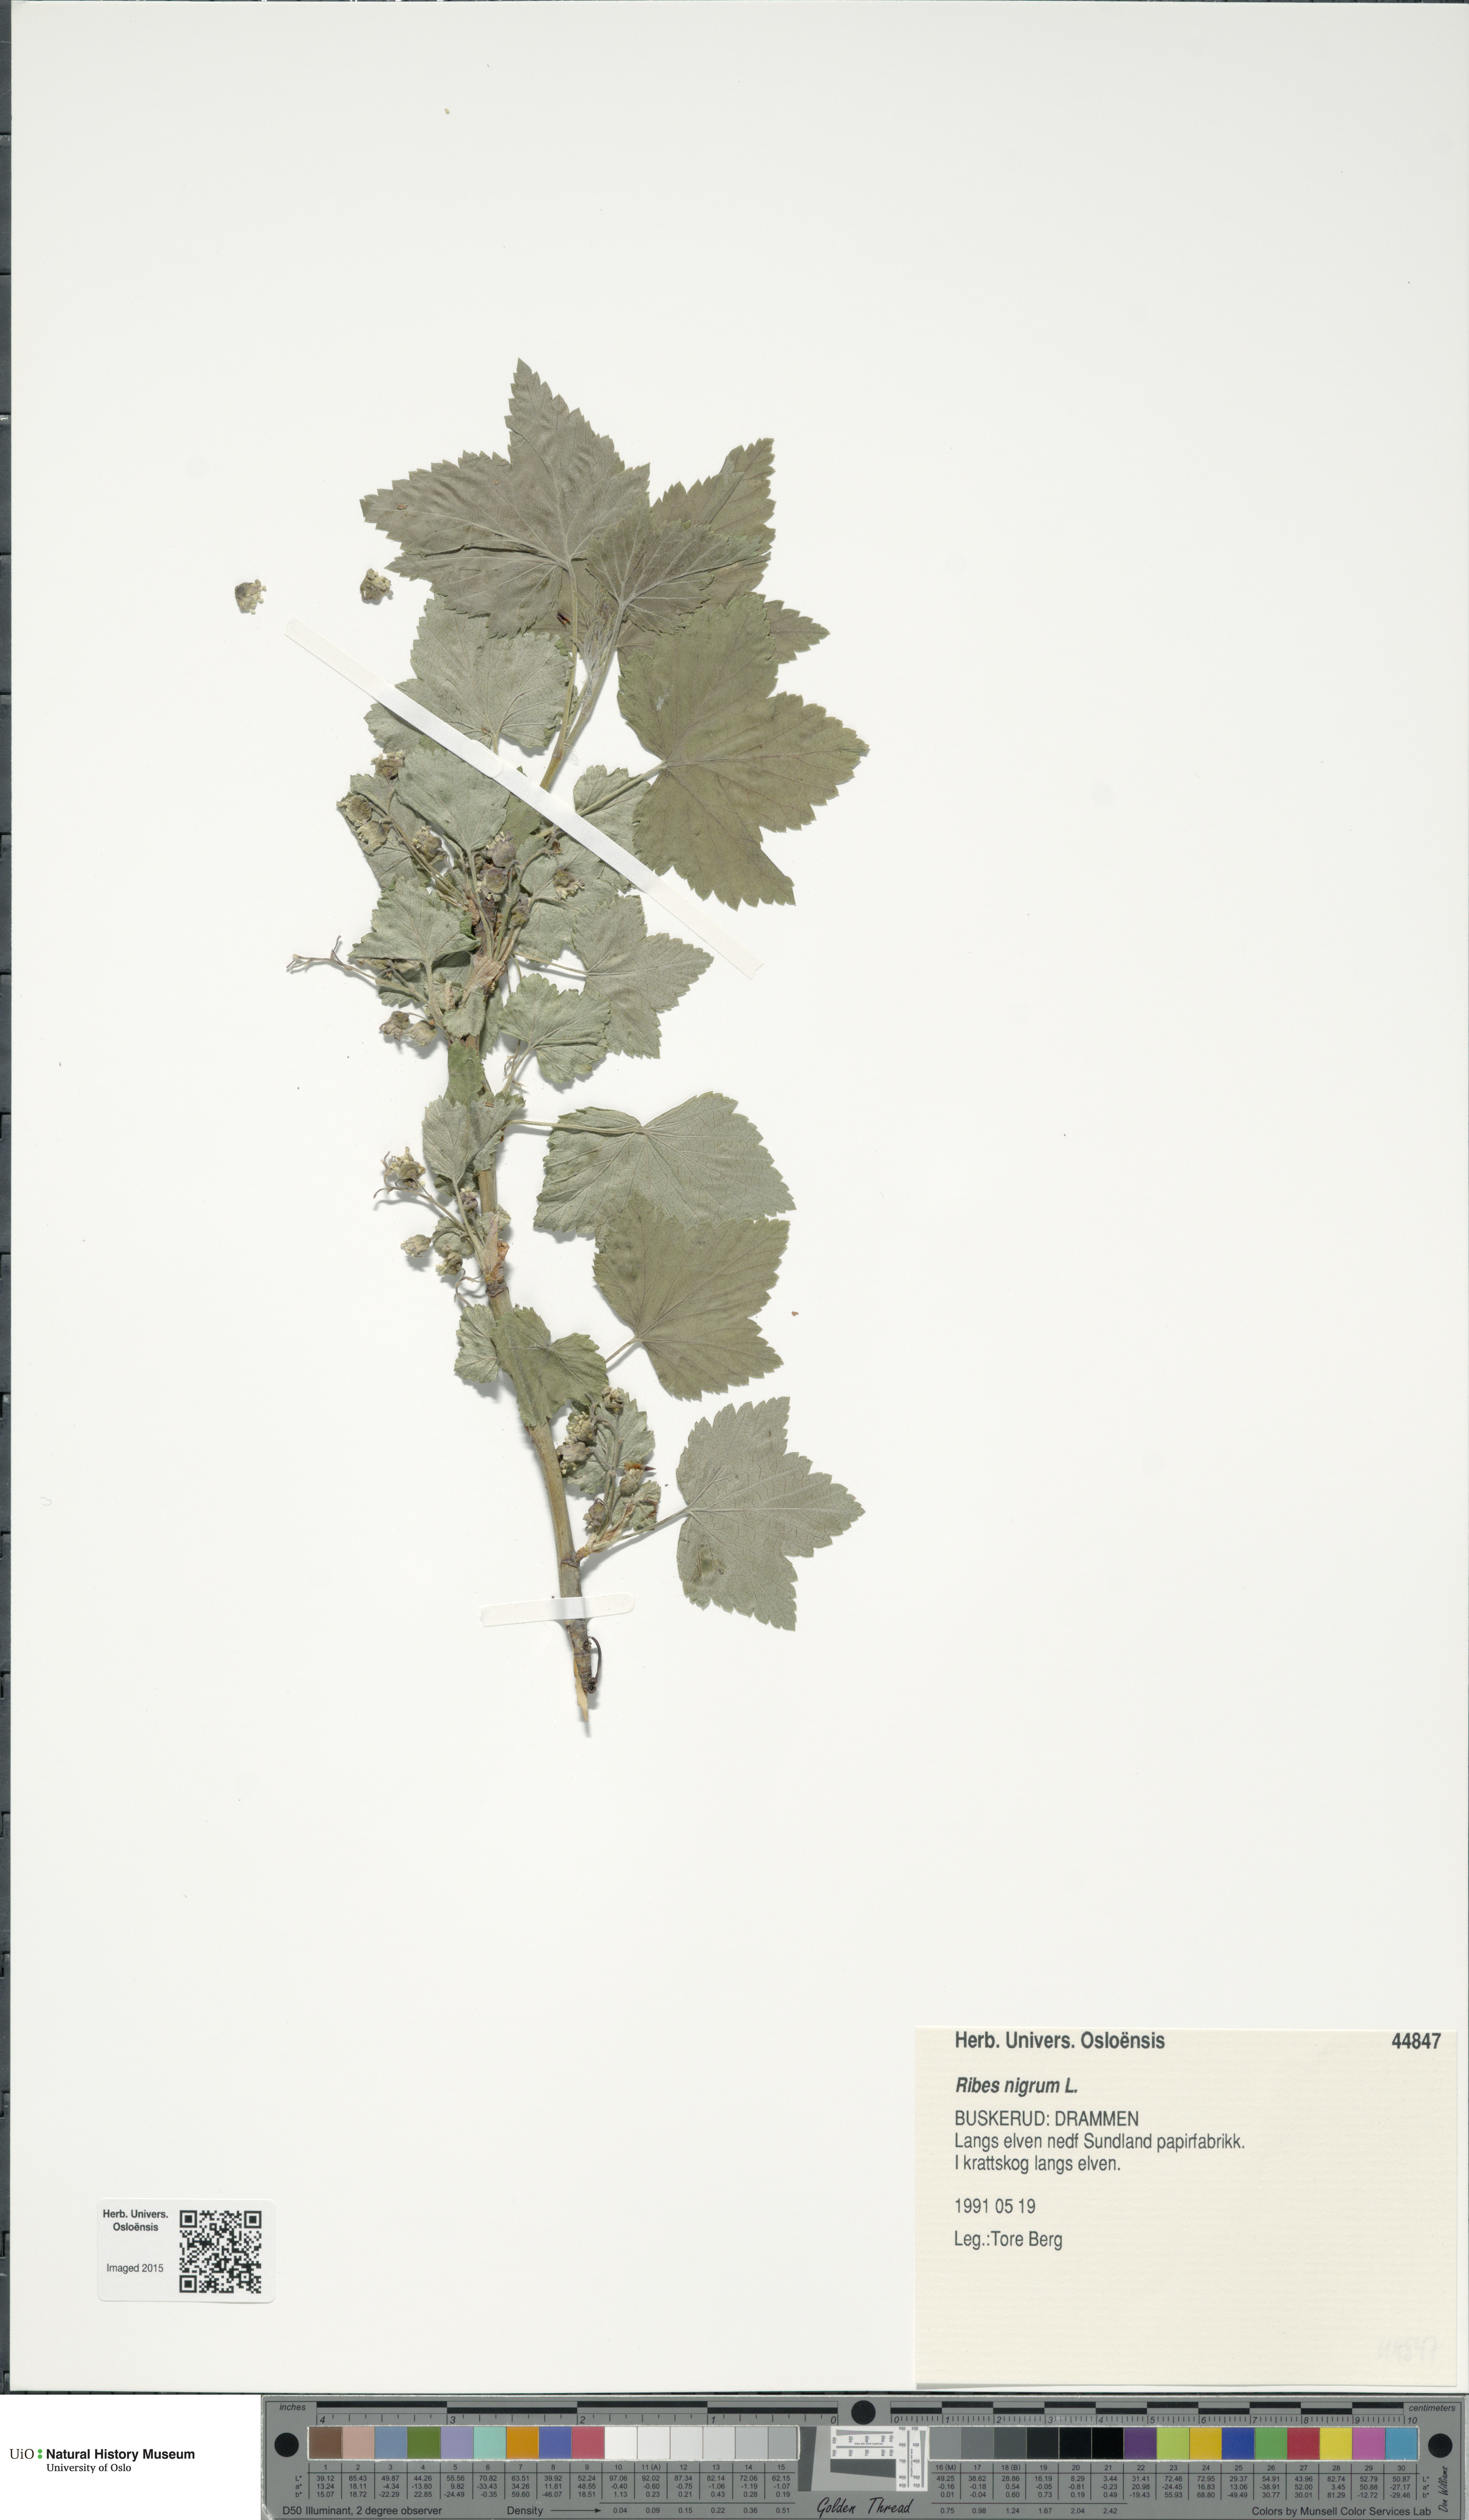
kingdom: Plantae
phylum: Tracheophyta
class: Magnoliopsida
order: Saxifragales
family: Grossulariaceae
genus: Ribes
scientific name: Ribes nigrum
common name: Black currant
